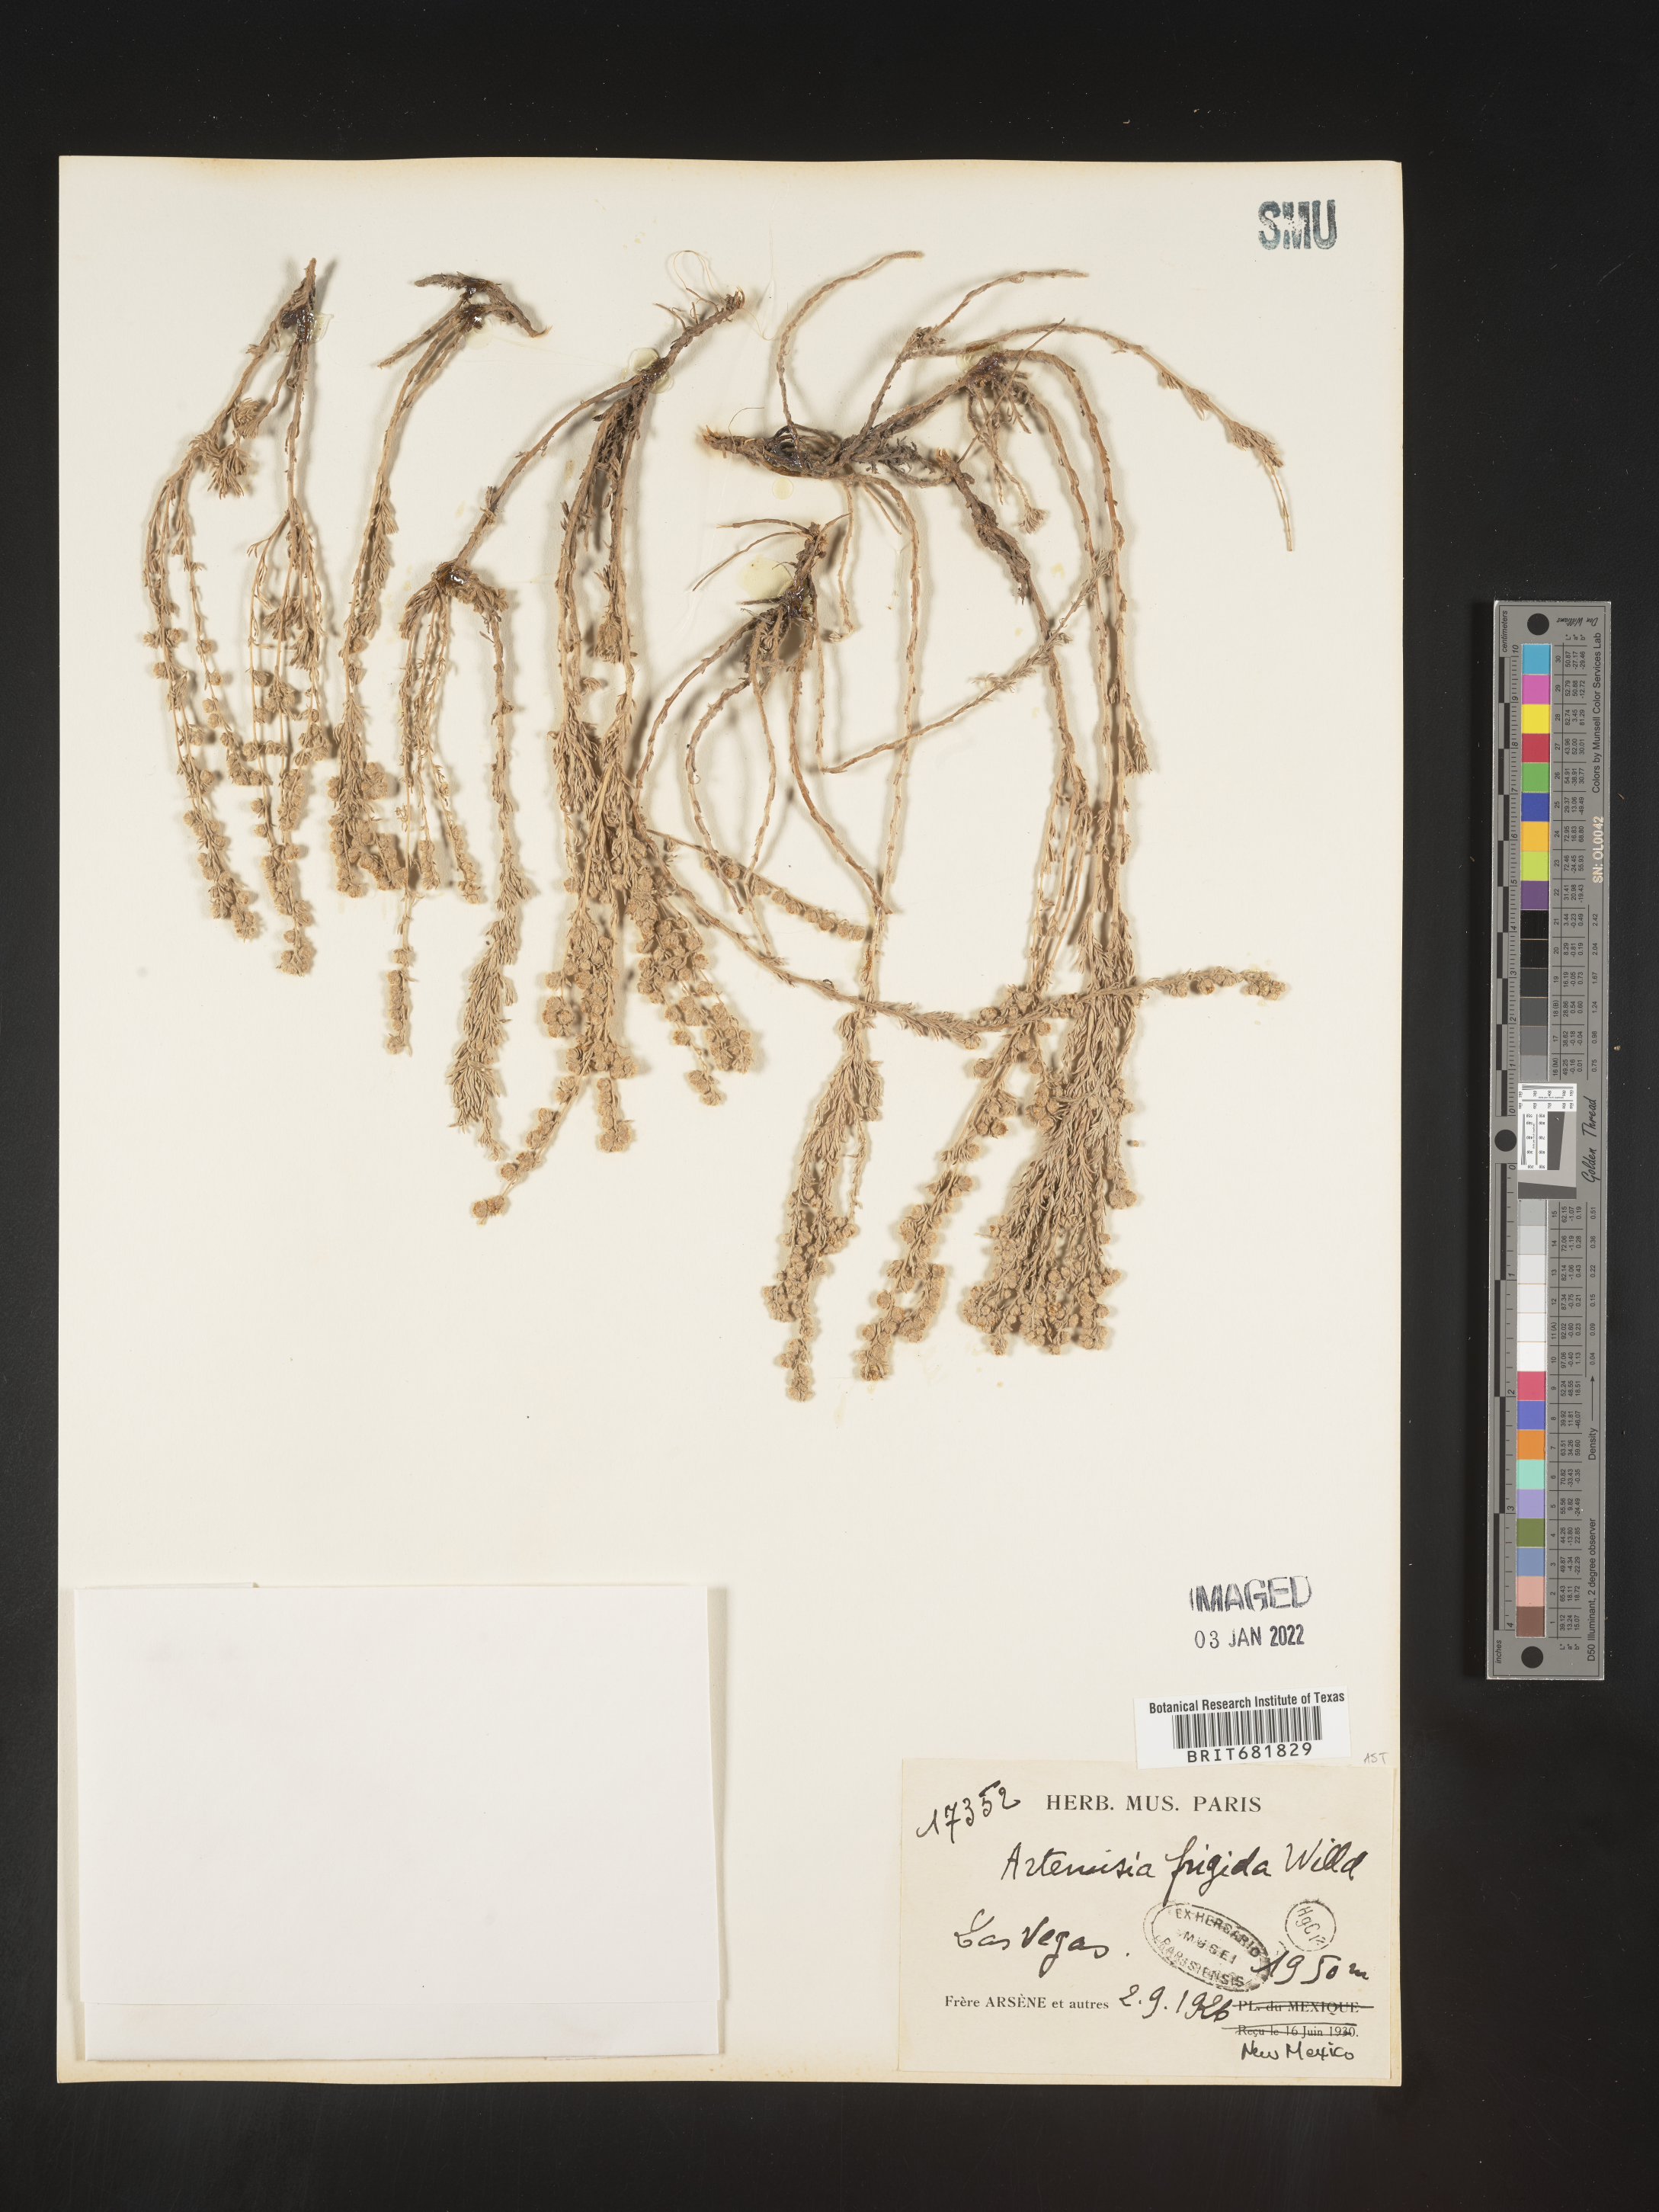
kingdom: Plantae
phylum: Tracheophyta
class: Magnoliopsida
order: Asterales
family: Asteraceae
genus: Artemisia
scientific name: Artemisia frigida
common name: Prairie sagewort
